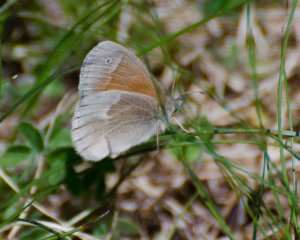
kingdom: Animalia
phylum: Arthropoda
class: Insecta
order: Lepidoptera
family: Nymphalidae
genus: Coenonympha
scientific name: Coenonympha tullia
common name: Large Heath
